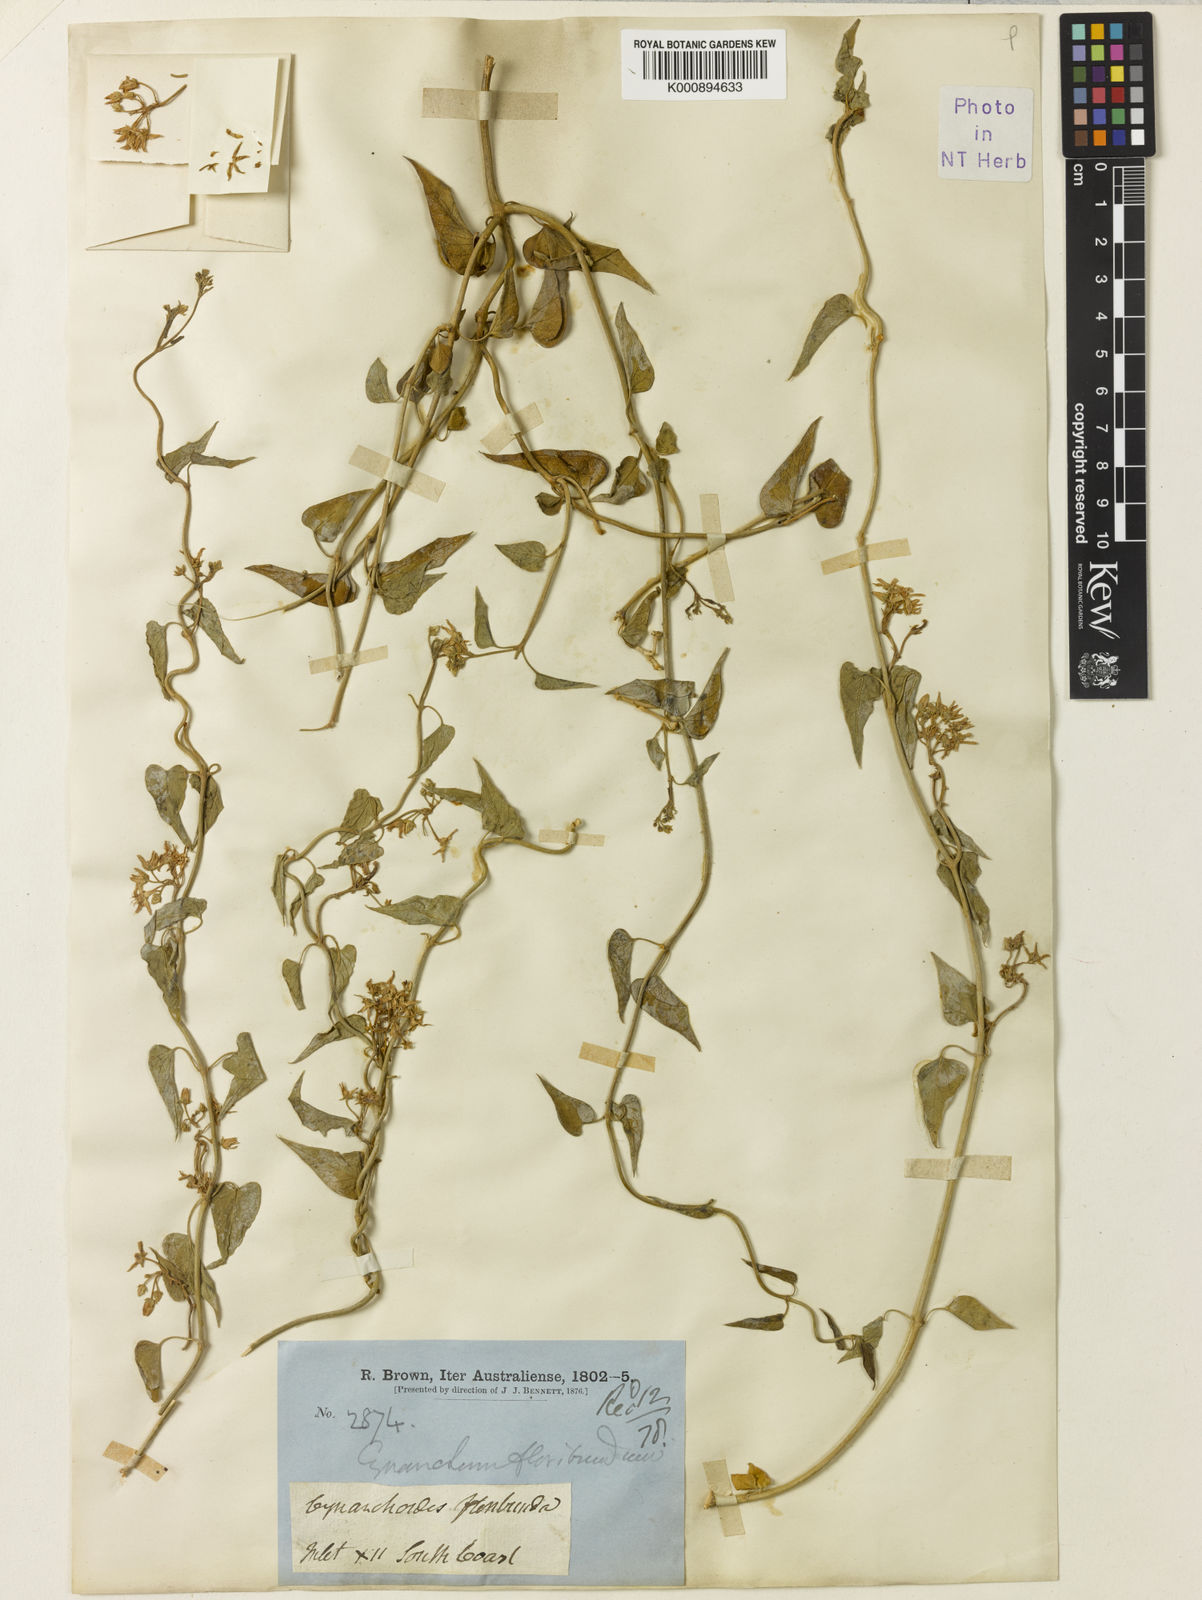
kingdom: Plantae
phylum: Tracheophyta
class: Magnoliopsida
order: Gentianales
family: Apocynaceae
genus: Vincetoxicum
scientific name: Vincetoxicum floribundum
